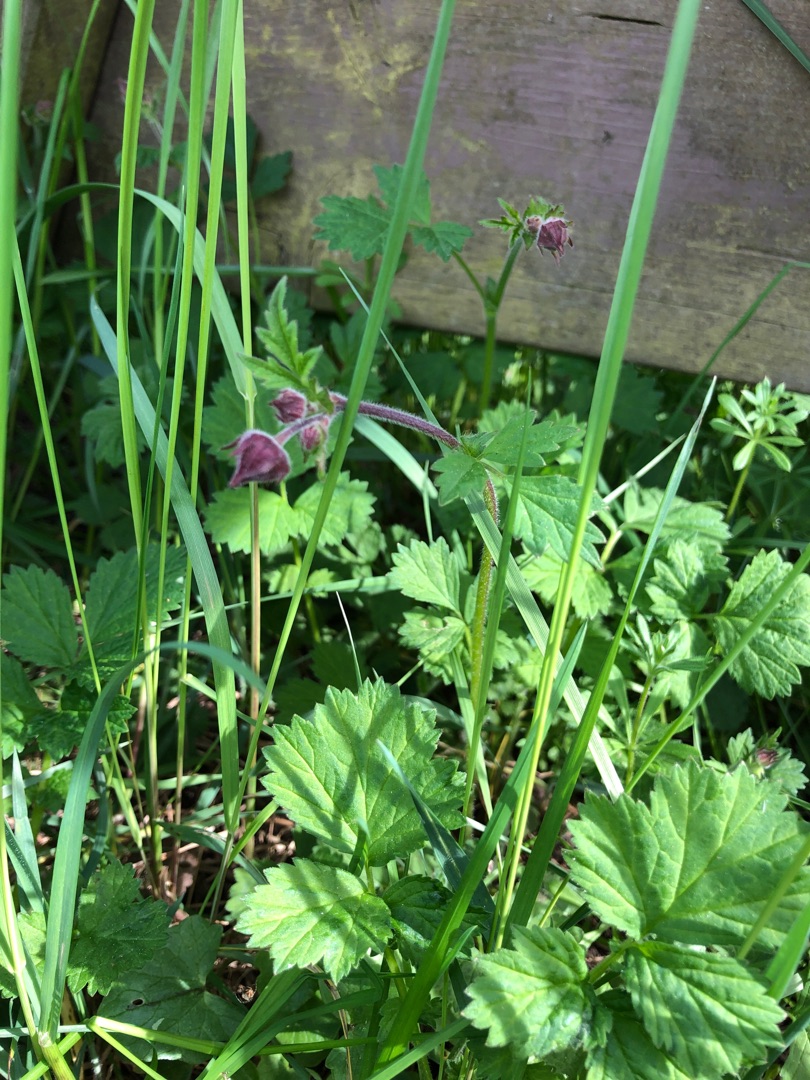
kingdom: Plantae
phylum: Tracheophyta
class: Magnoliopsida
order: Rosales
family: Rosaceae
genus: Geum
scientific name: Geum rivale
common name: Eng-nellikerod
